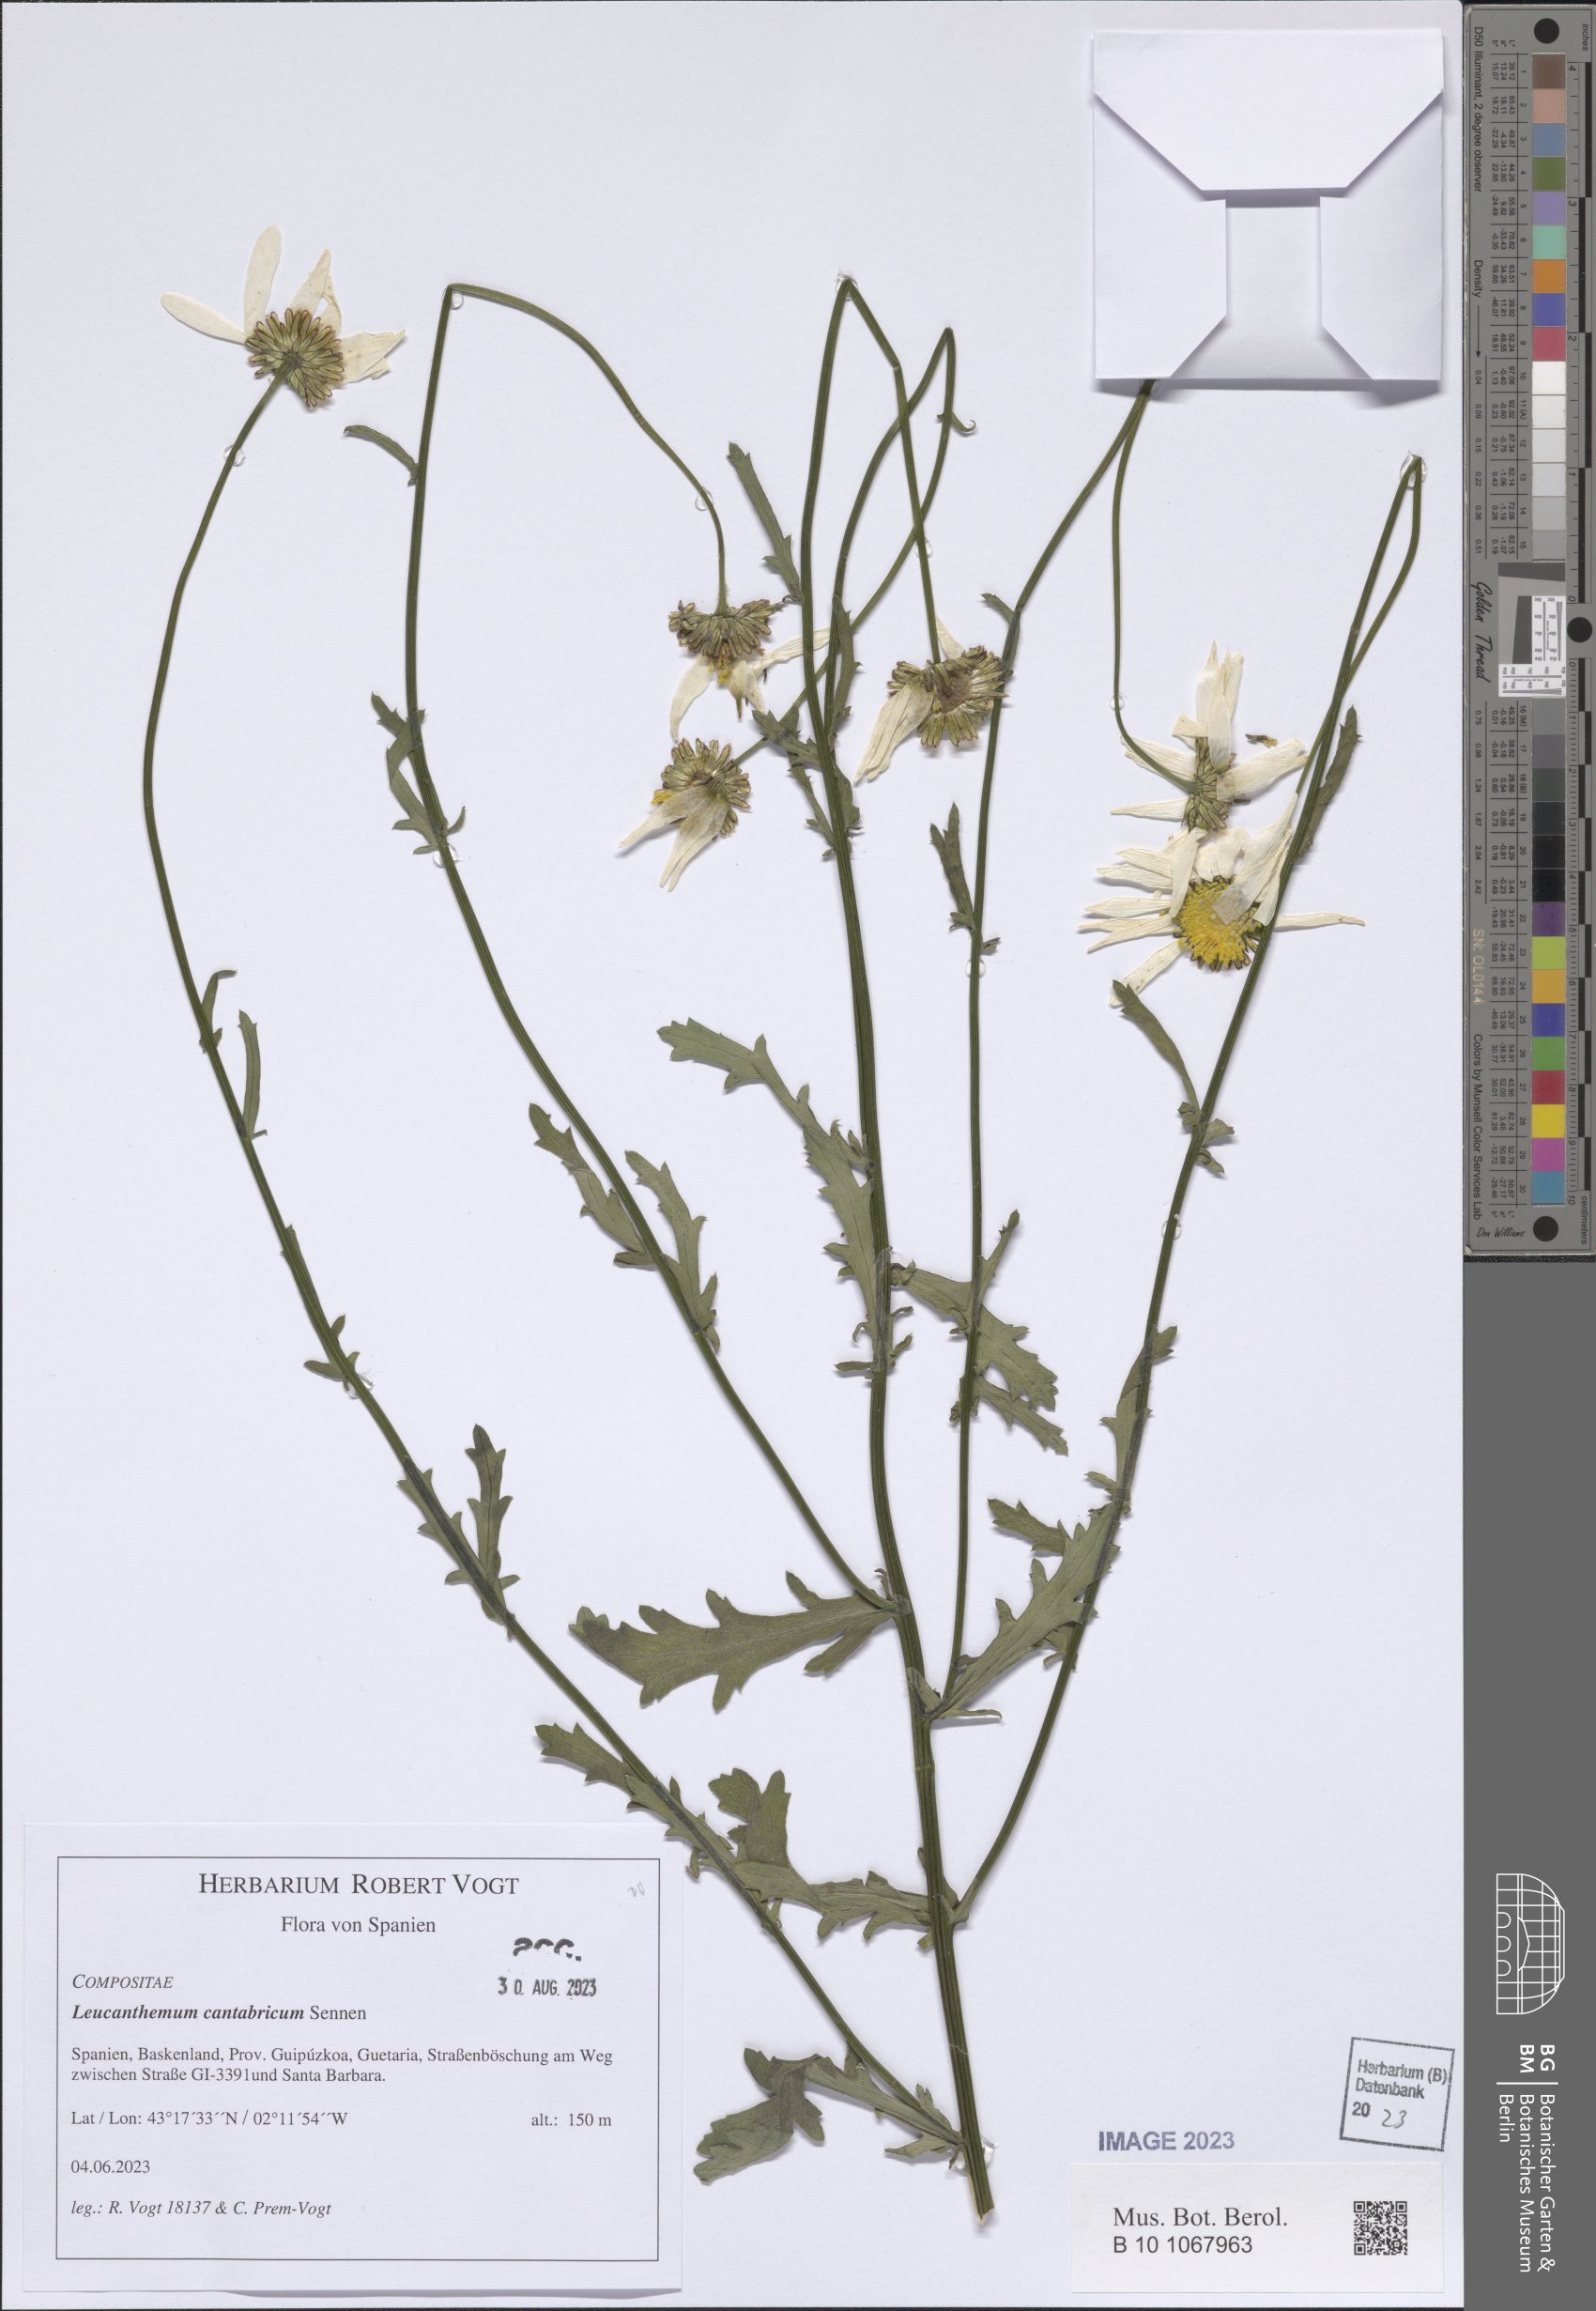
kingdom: Plantae
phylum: Tracheophyta
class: Magnoliopsida
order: Asterales
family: Asteraceae
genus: Leucanthemum
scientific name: Leucanthemum cantabricum
